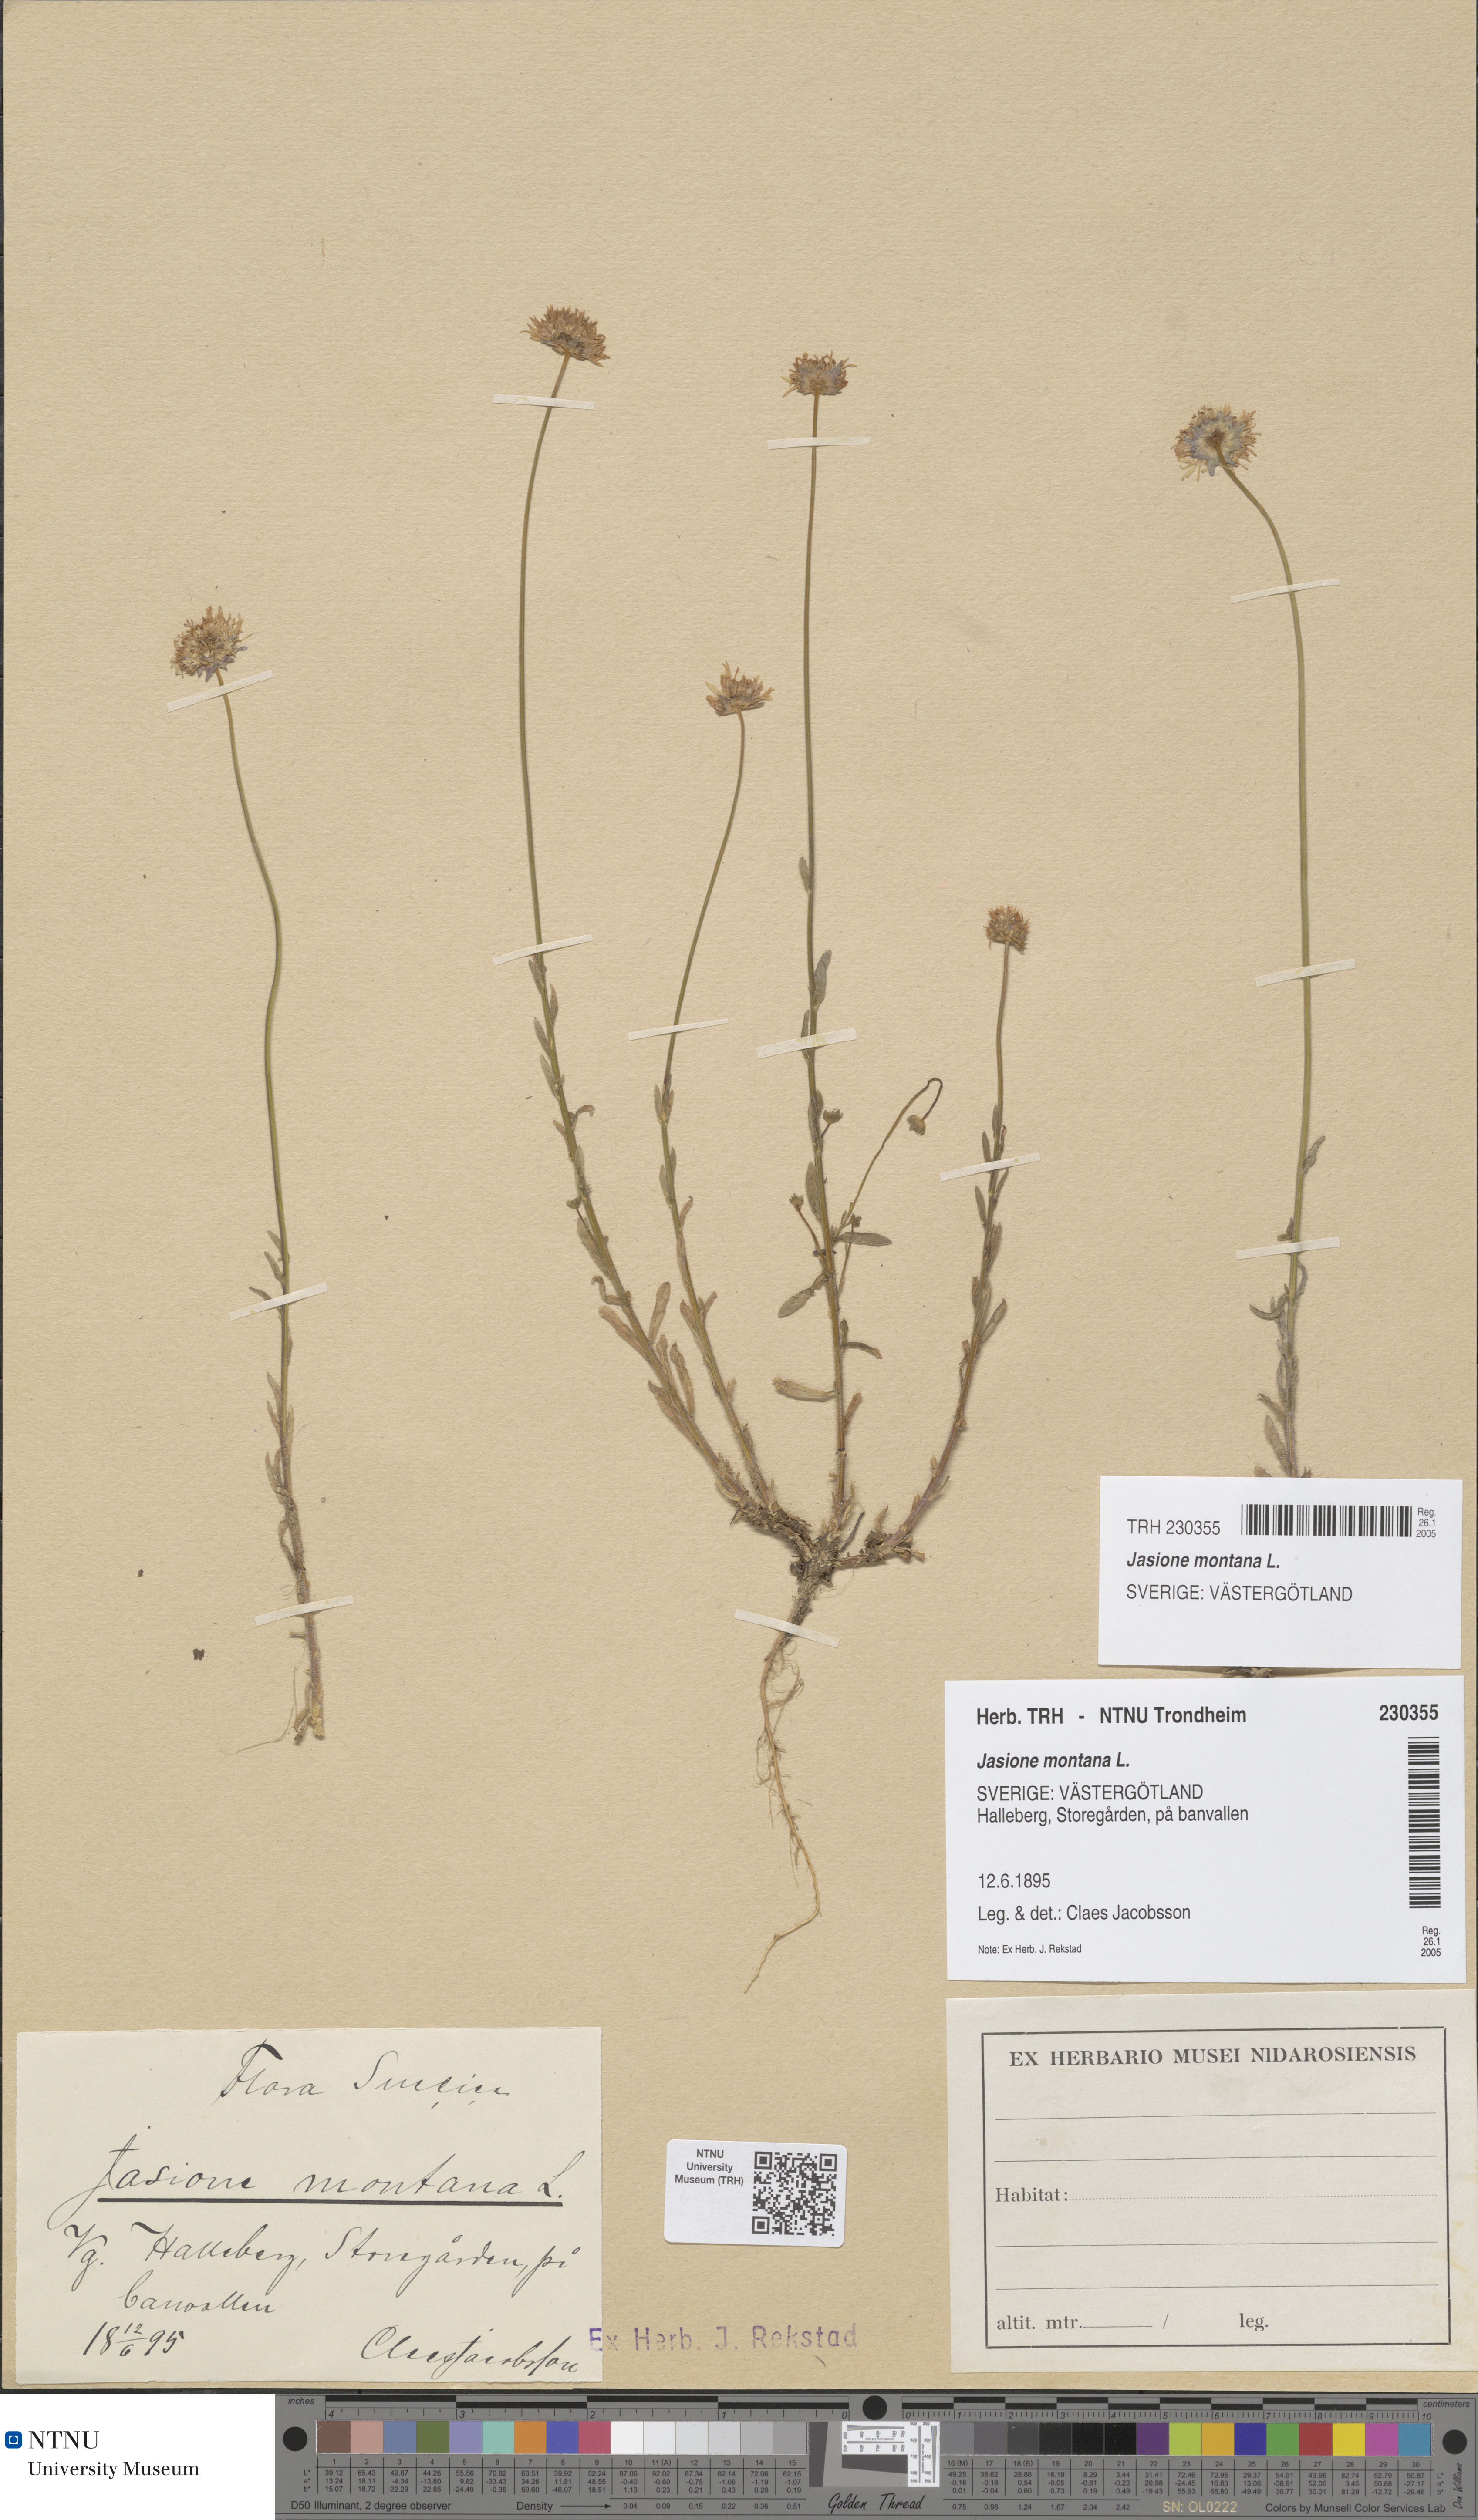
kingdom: Plantae
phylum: Tracheophyta
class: Magnoliopsida
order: Asterales
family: Campanulaceae
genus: Jasione
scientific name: Jasione montana
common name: Sheep's-bit
